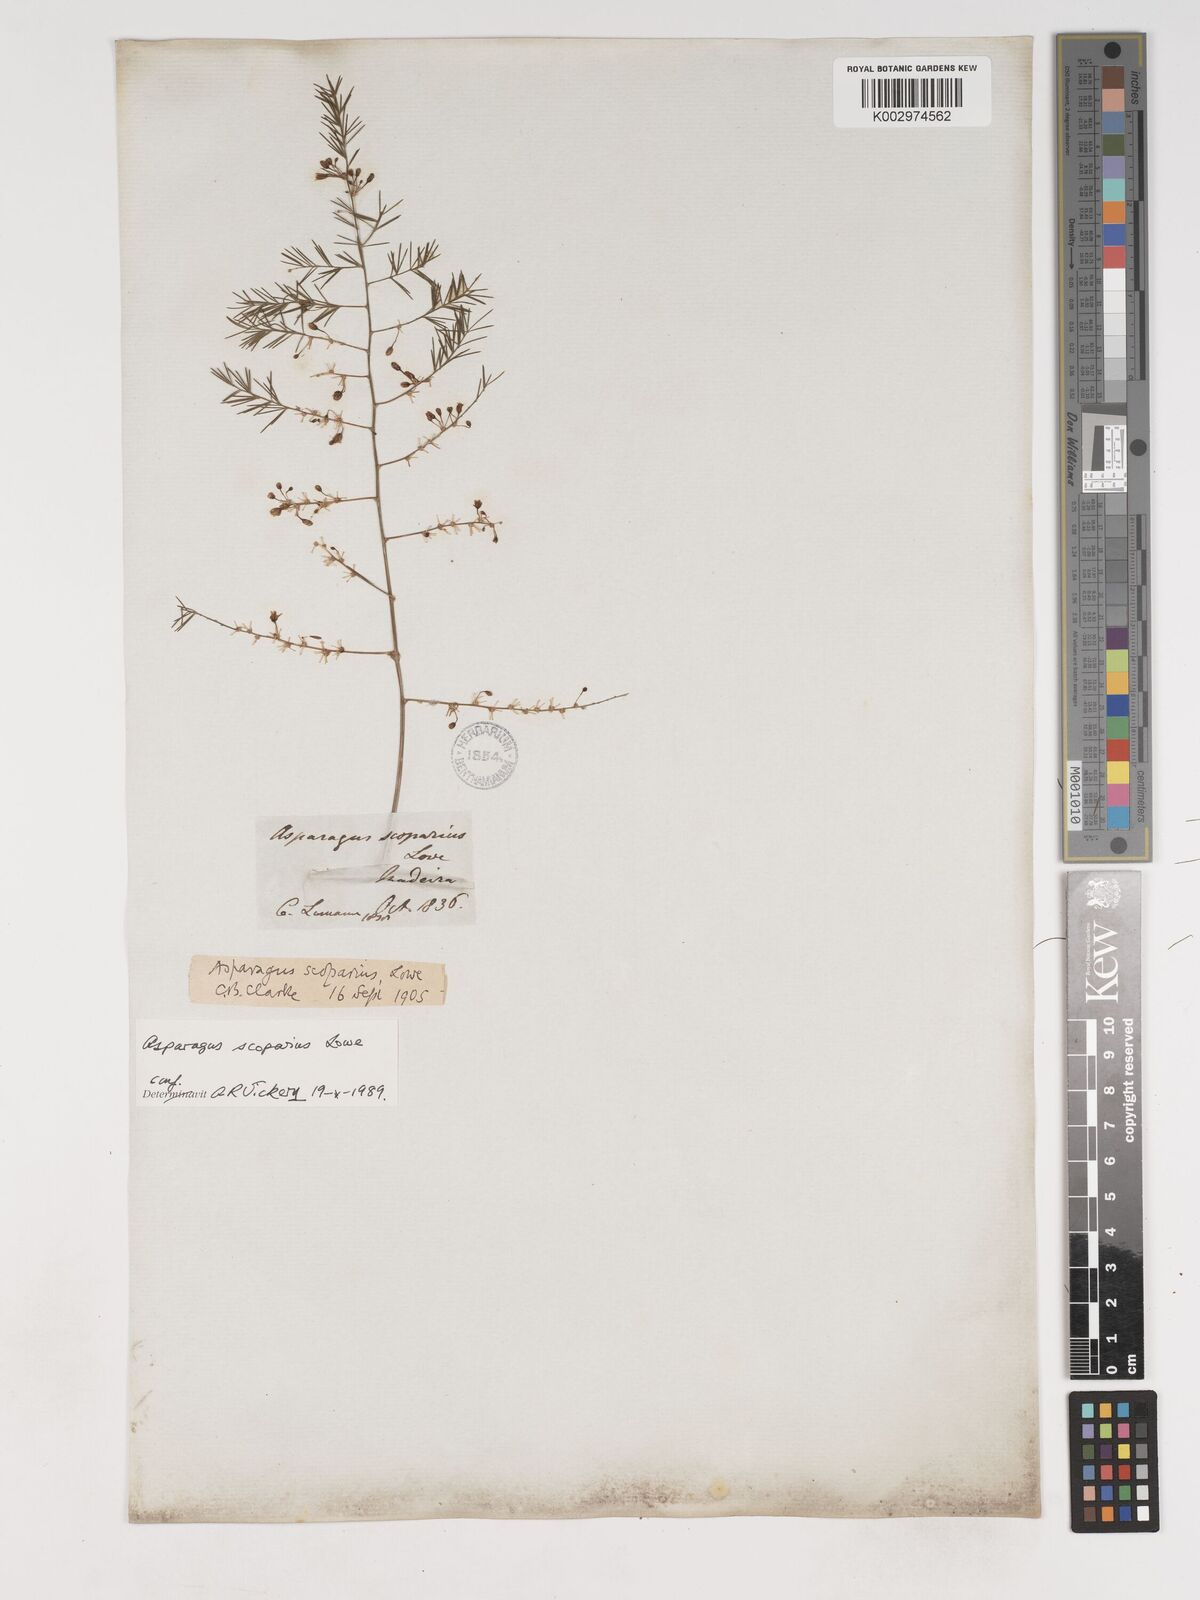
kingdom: Plantae
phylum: Tracheophyta
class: Liliopsida
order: Asparagales
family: Asparagaceae
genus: Asparagus
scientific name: Asparagus scoparius
